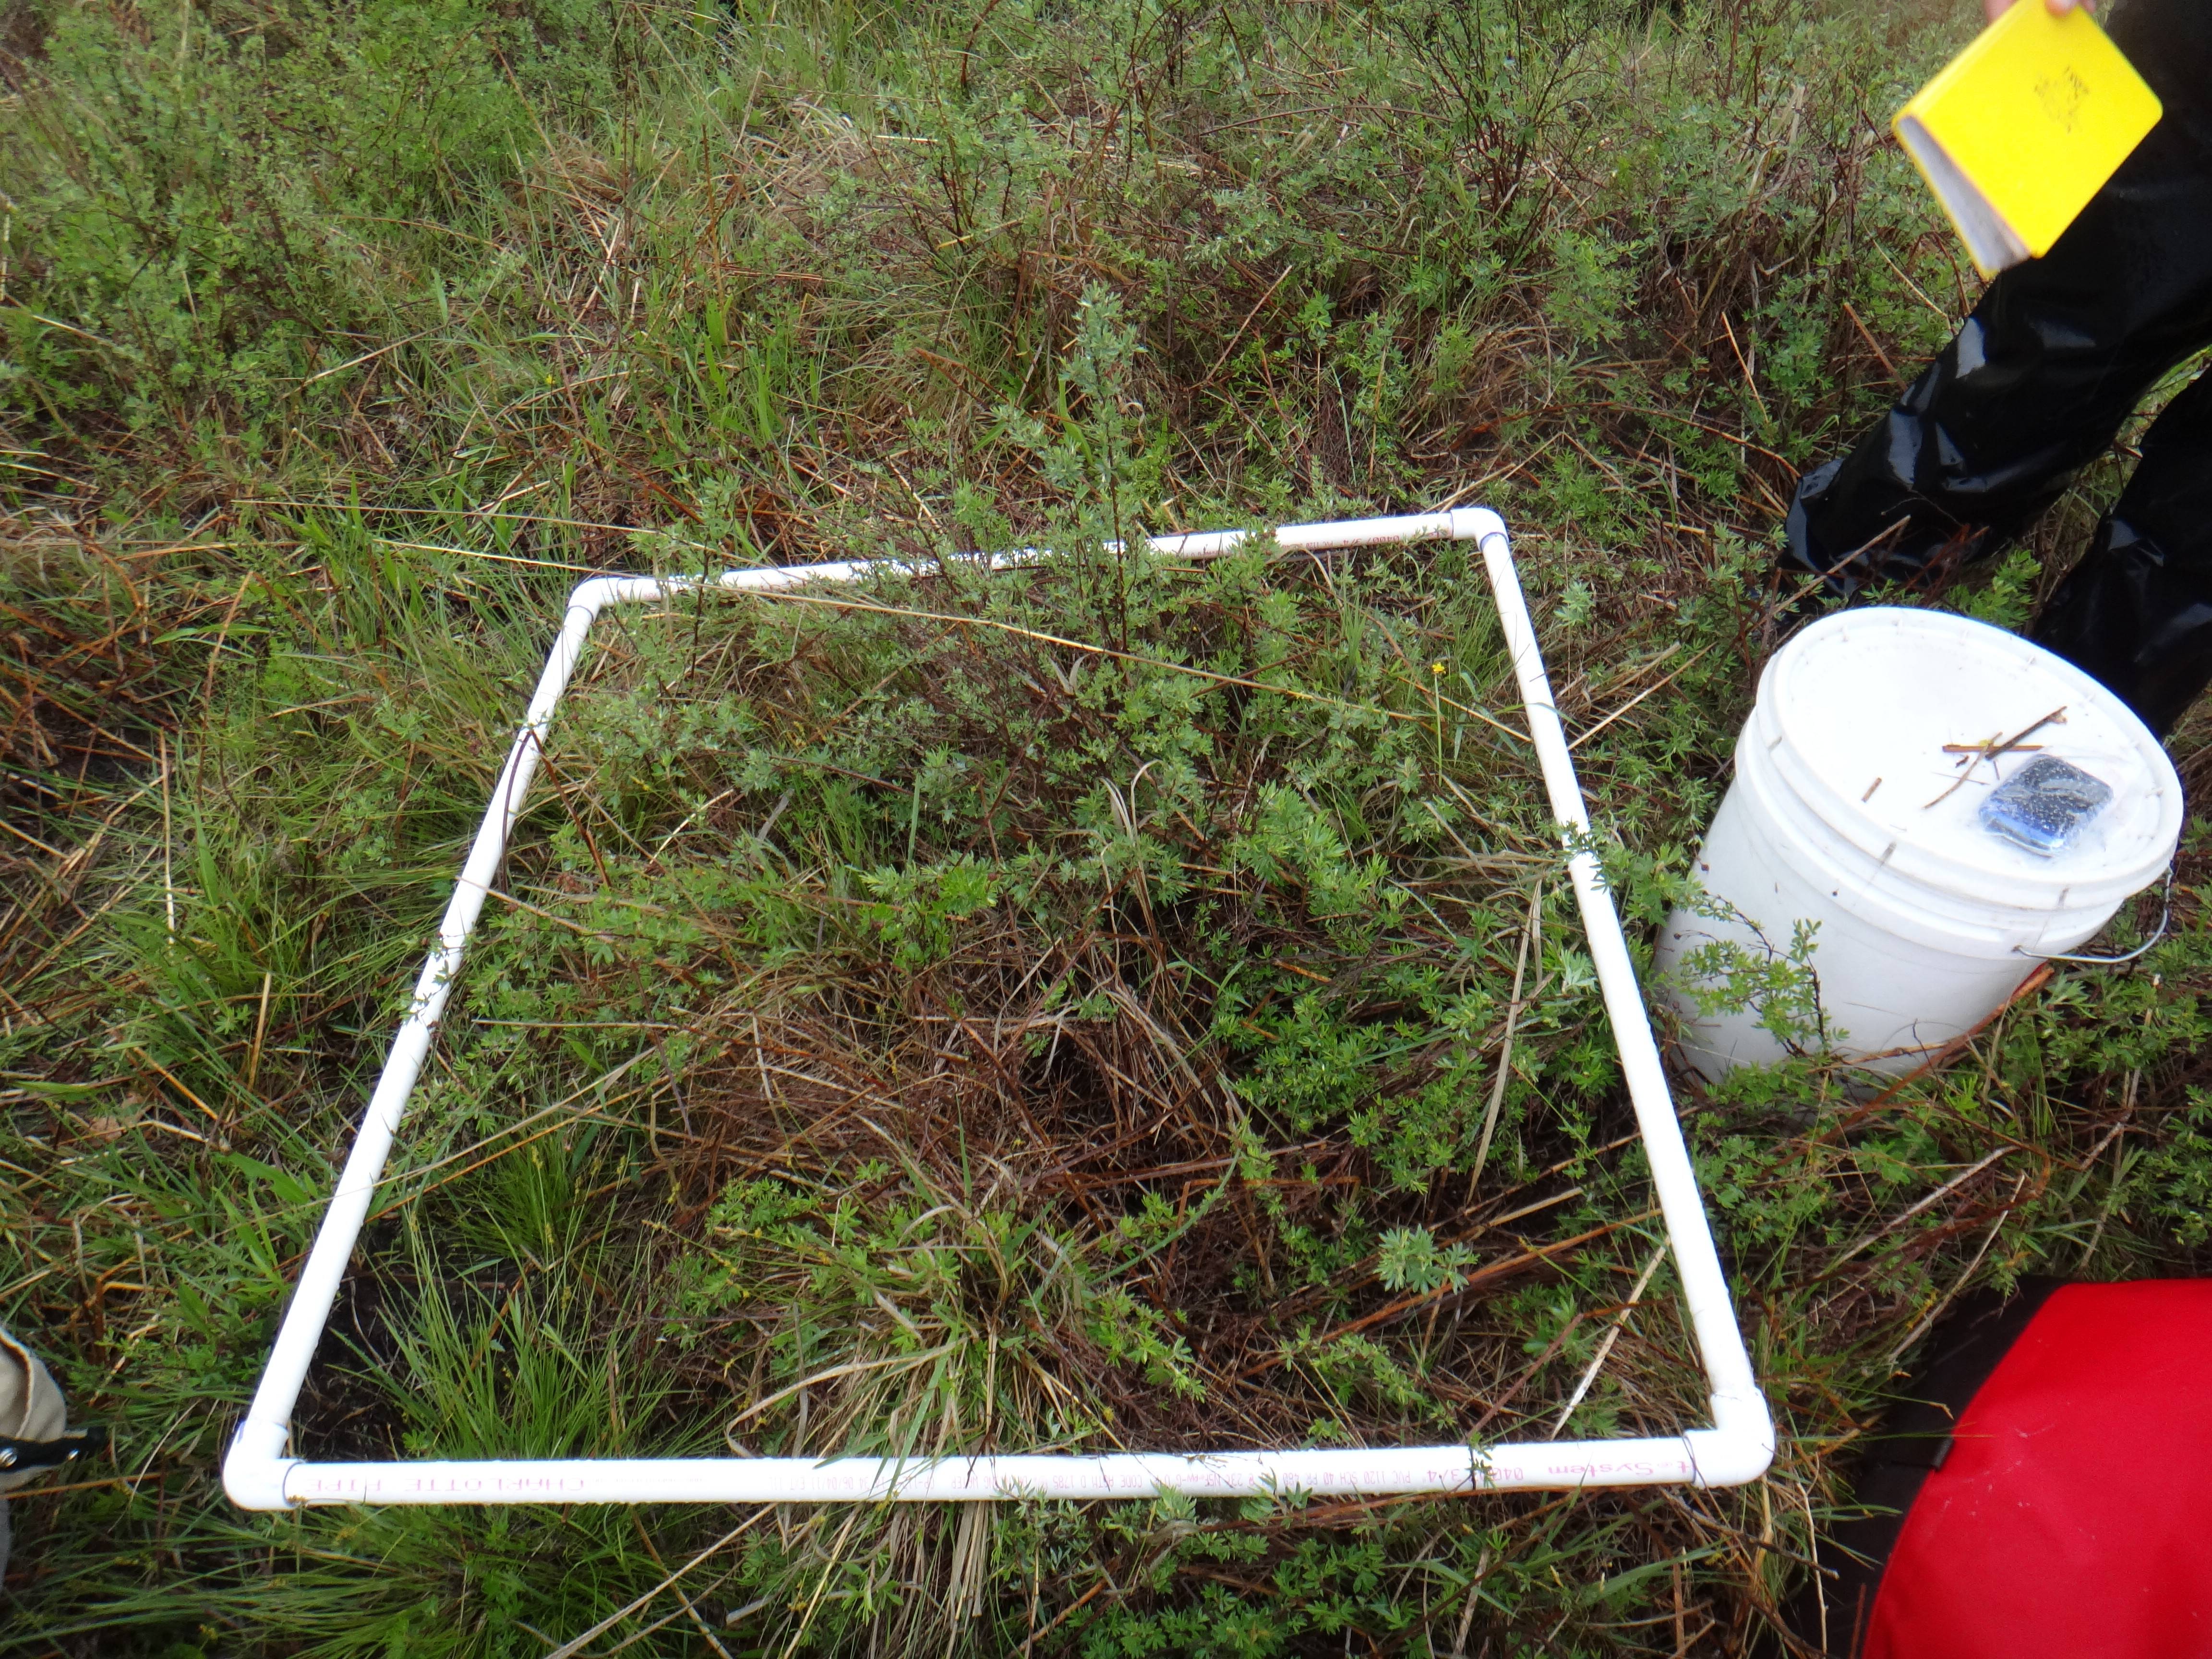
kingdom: Plantae
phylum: Tracheophyta
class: Liliopsida
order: Poales
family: Poaceae
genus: Sorghastrum
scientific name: Sorghastrum nutans
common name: Indian grass
